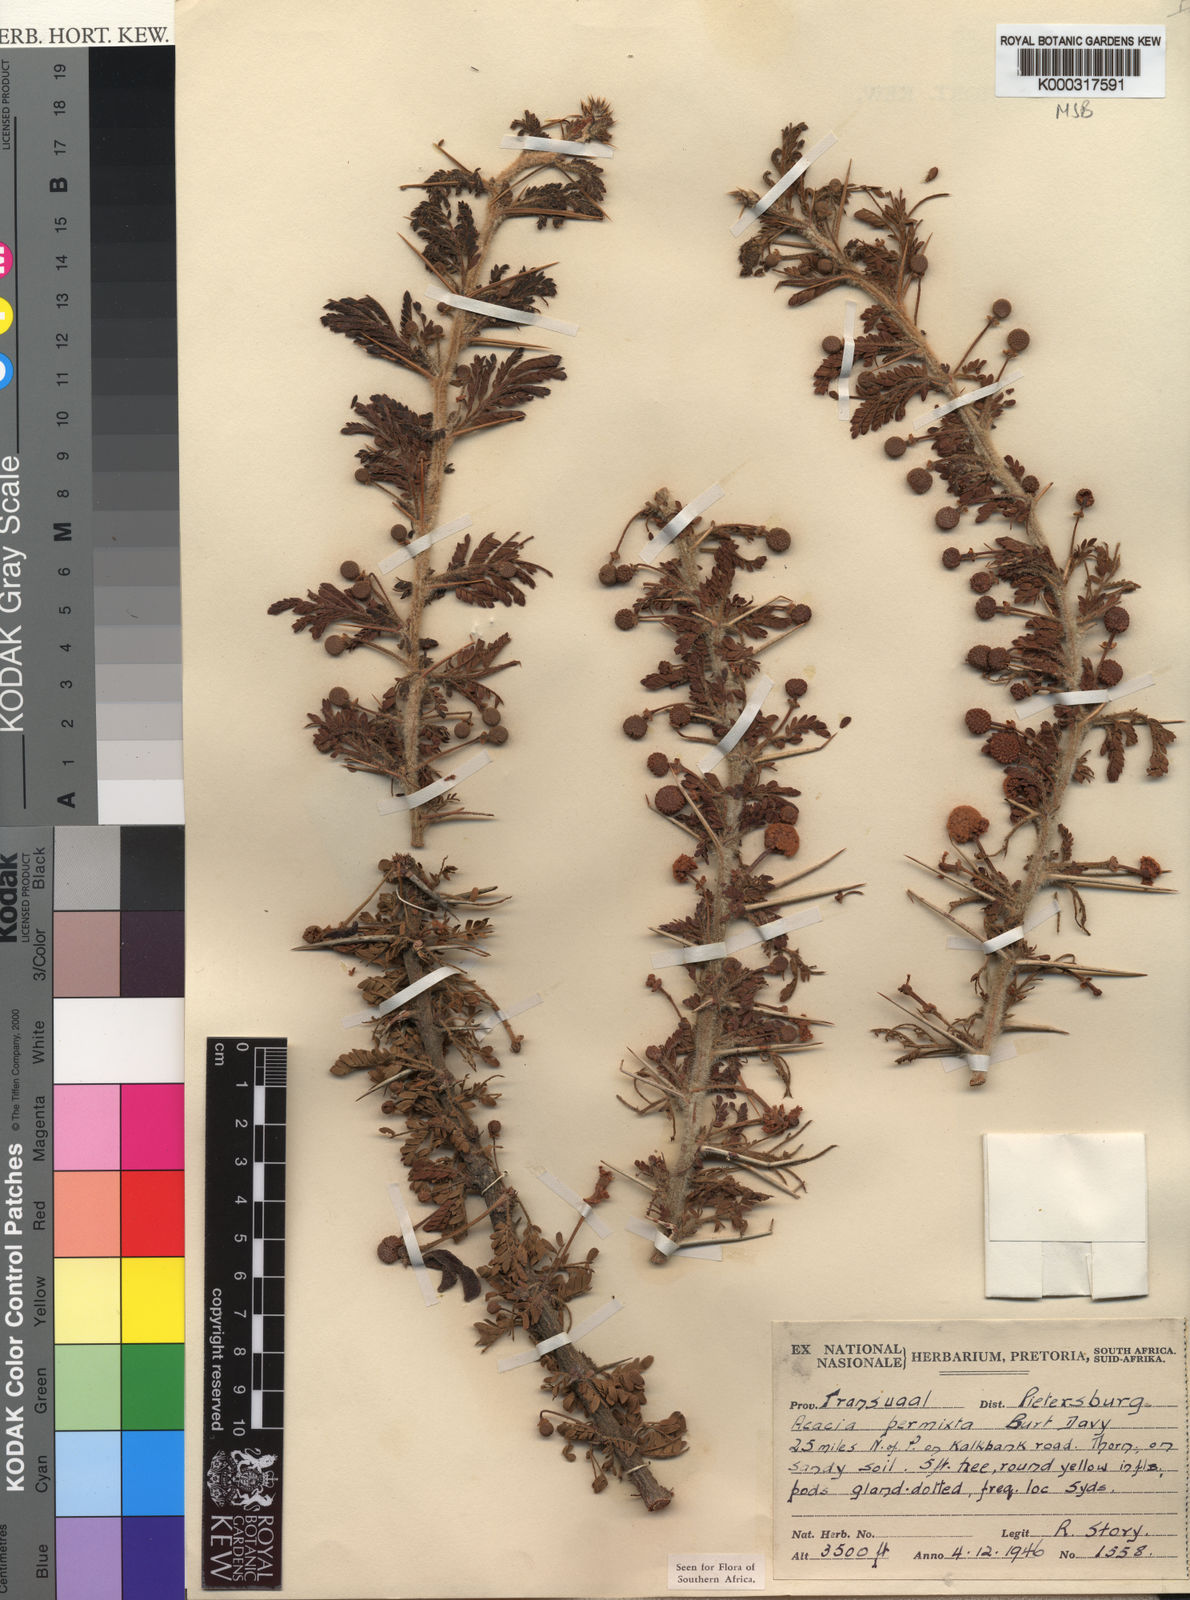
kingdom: Plantae
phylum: Tracheophyta
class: Magnoliopsida
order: Fabales
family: Fabaceae
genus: Vachellia
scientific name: Vachellia permixta
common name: Hairy acacia
